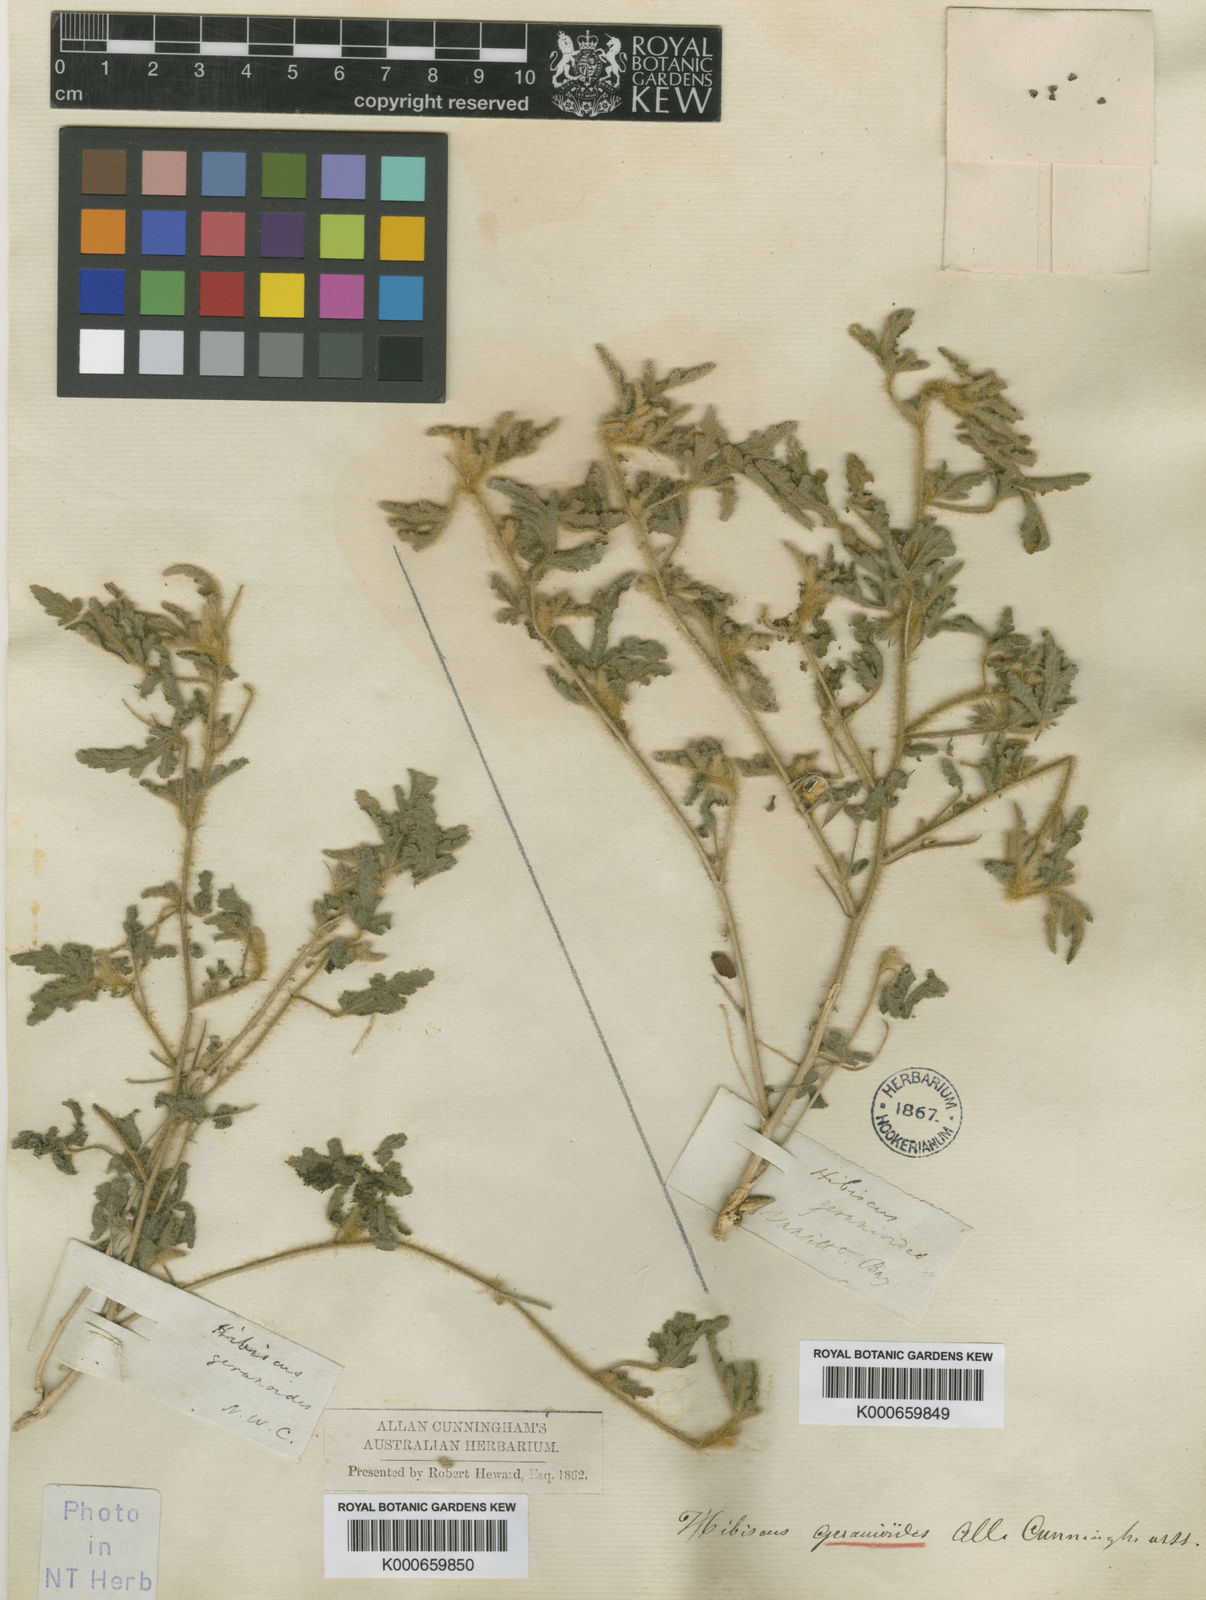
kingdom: Plantae
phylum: Tracheophyta
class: Magnoliopsida
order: Malvales
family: Malvaceae
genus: Hibiscus
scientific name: Hibiscus geranioides
